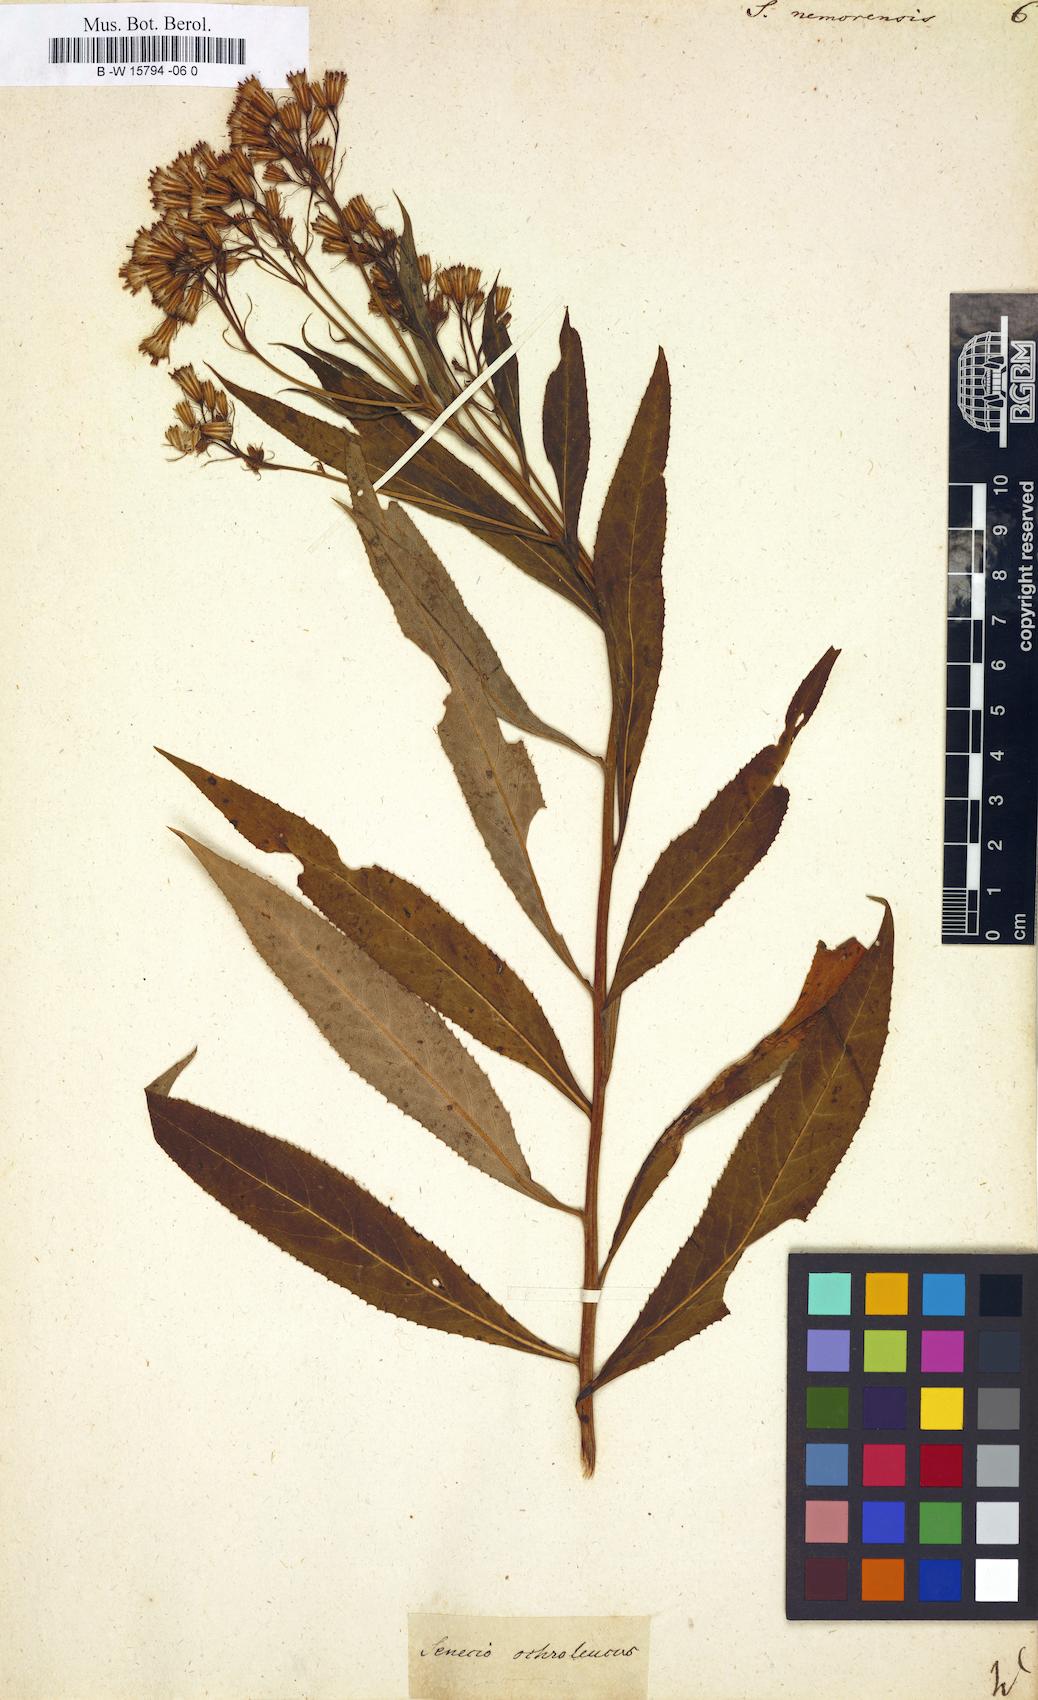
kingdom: Plantae
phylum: Tracheophyta
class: Magnoliopsida
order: Asterales
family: Asteraceae
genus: Senecio
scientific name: Senecio nemorensis
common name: Alpine ragwort
